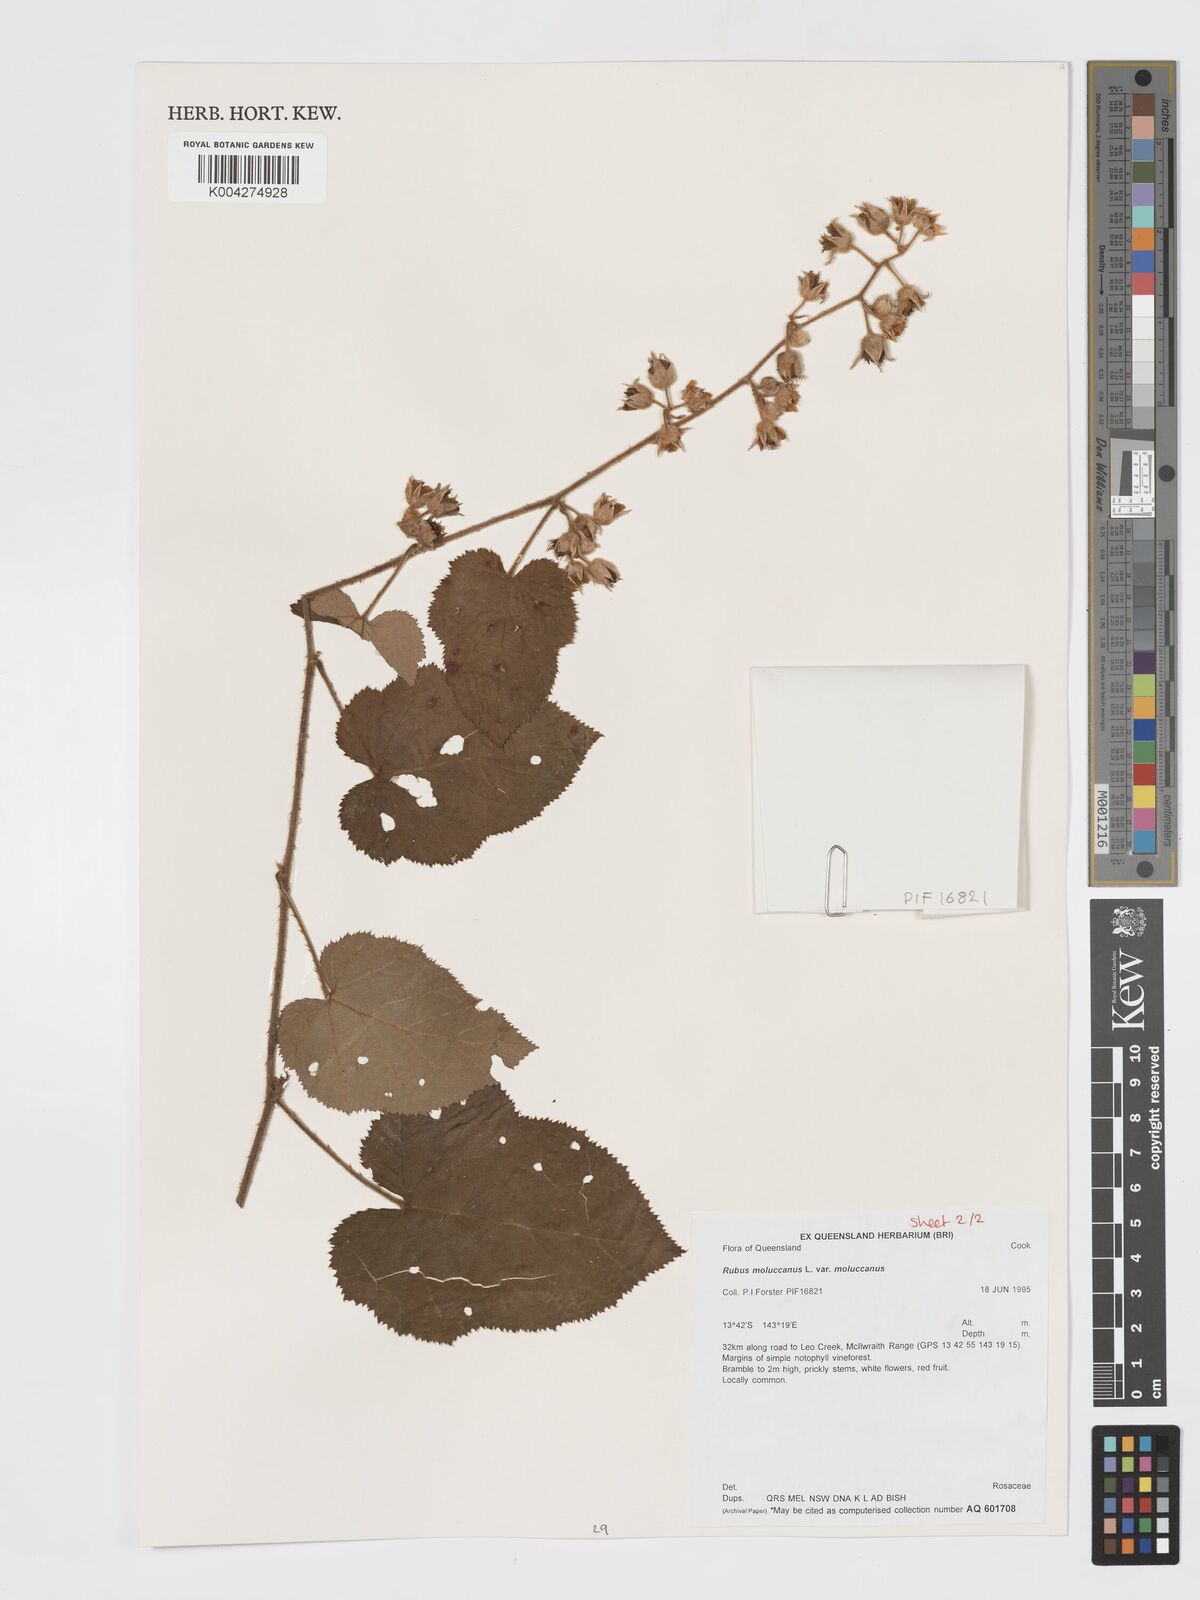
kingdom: Plantae
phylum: Tracheophyta
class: Magnoliopsida
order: Rosales
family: Rosaceae
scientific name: Rosaceae
